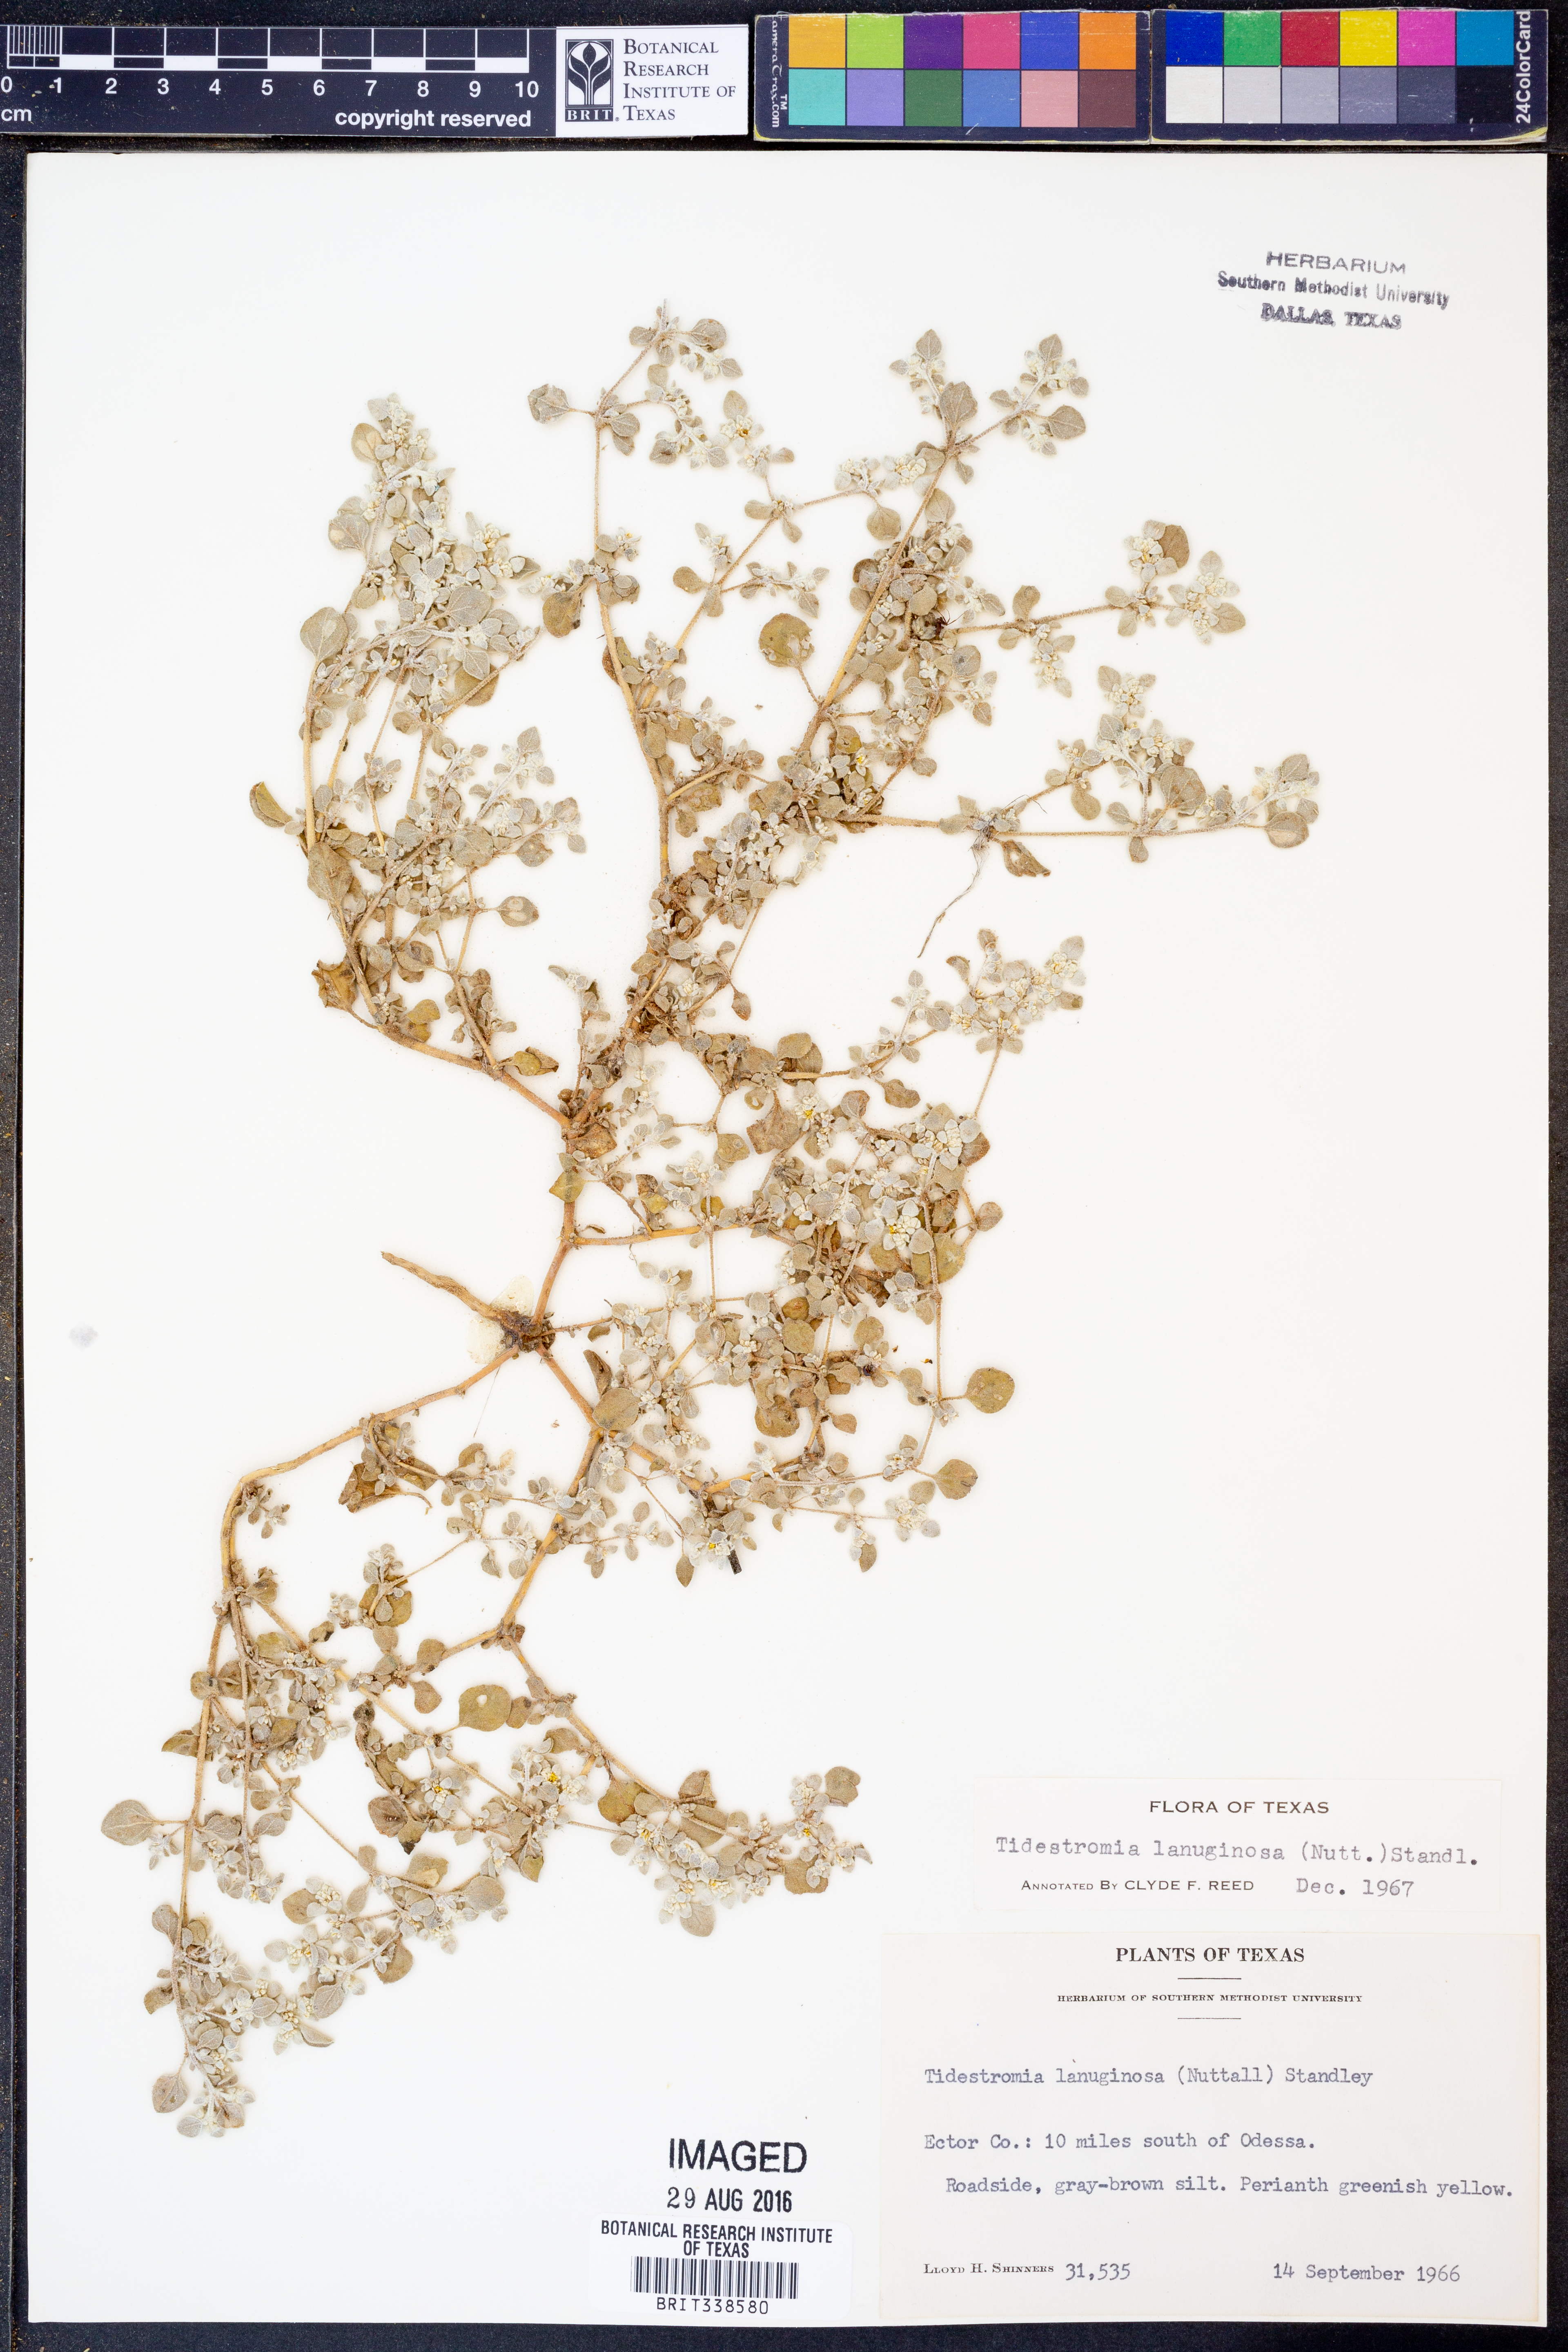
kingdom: Plantae
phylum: Tracheophyta
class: Magnoliopsida
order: Caryophyllales
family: Amaranthaceae
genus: Tidestromia
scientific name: Tidestromia lanuginosa
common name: Woolly tidestromia
